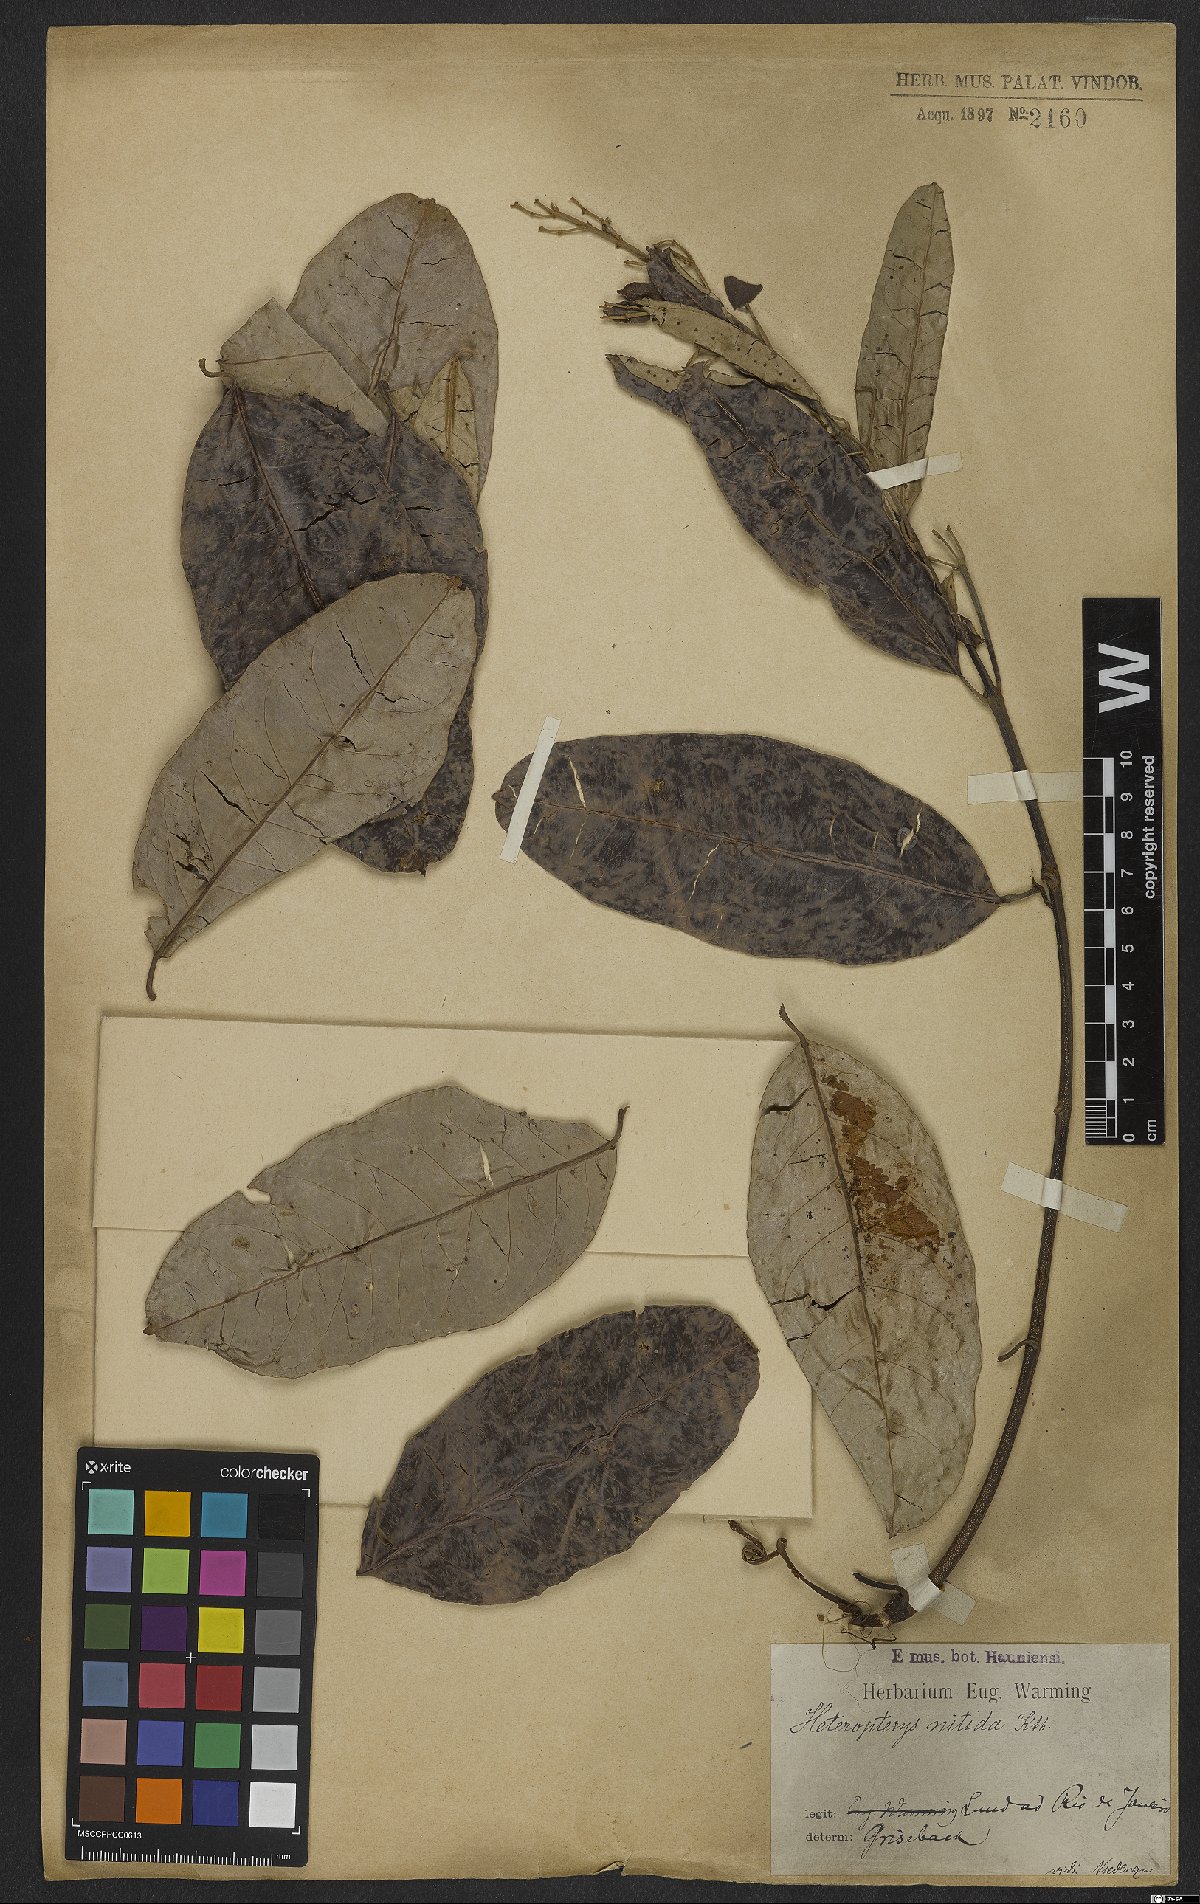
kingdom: Plantae
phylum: Tracheophyta
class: Magnoliopsida
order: Malpighiales
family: Malpighiaceae
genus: Heteropterys
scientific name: Heteropterys nitida
